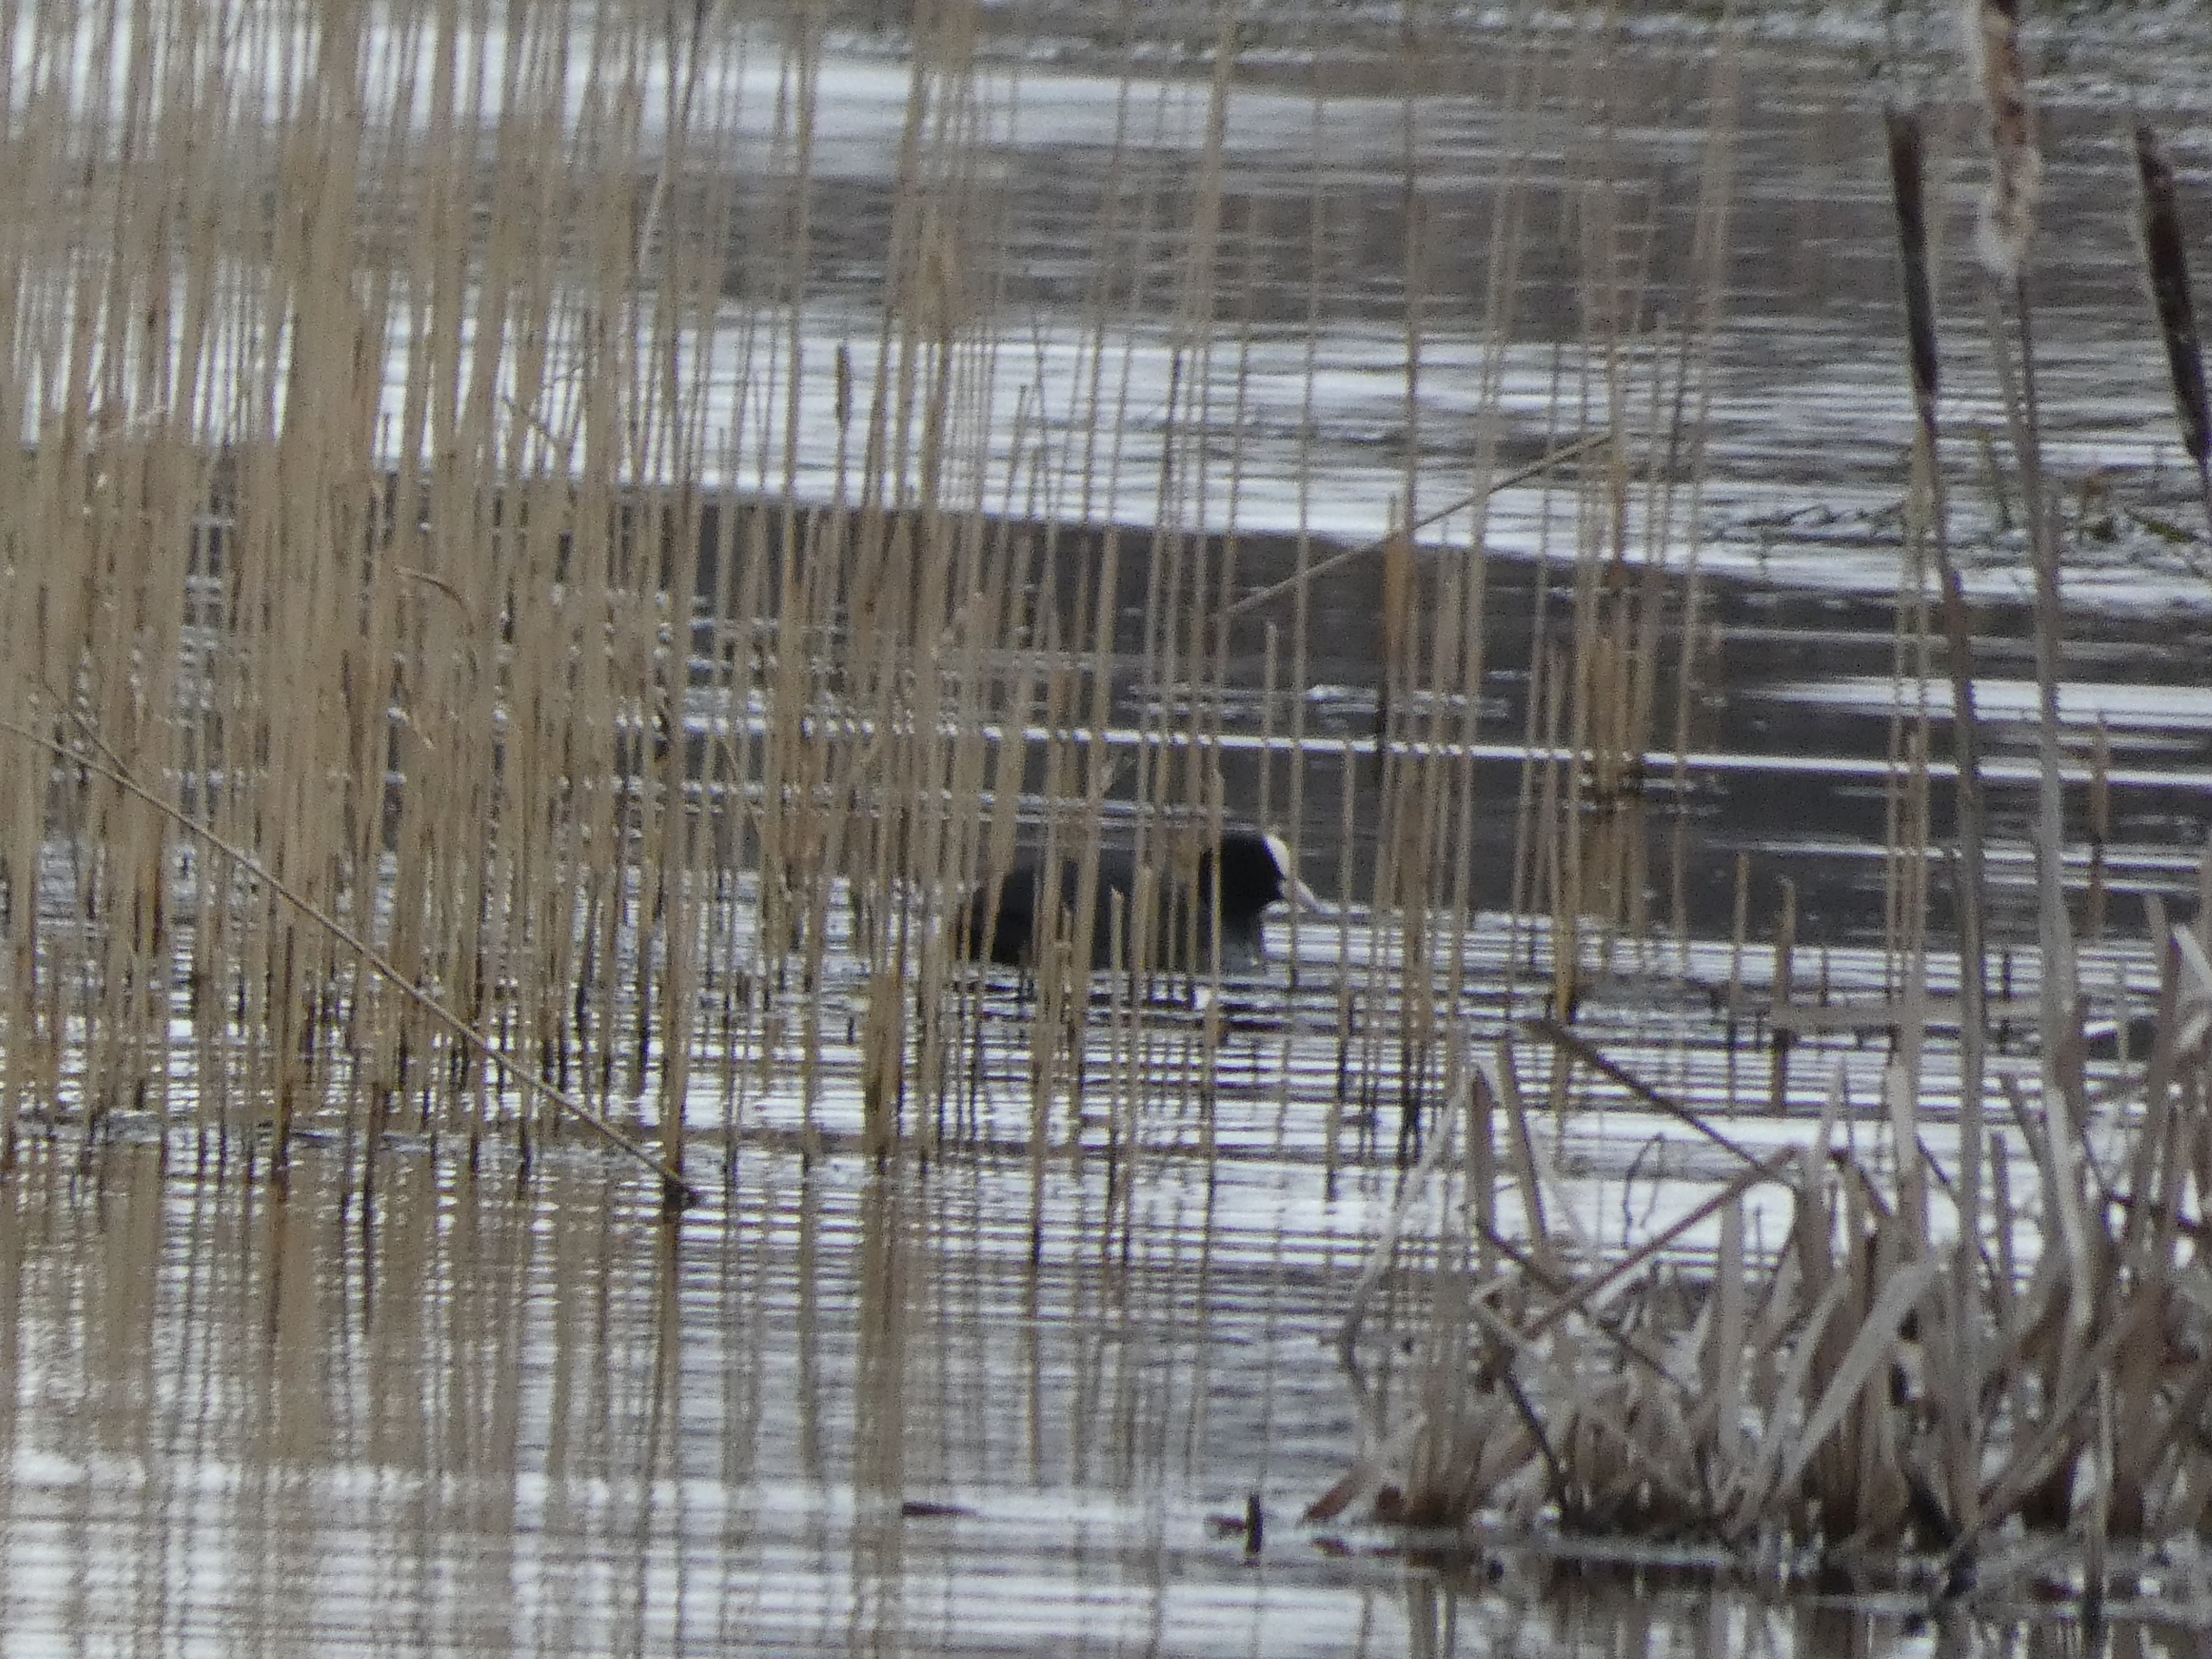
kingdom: Animalia
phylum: Chordata
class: Aves
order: Gruiformes
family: Rallidae
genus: Fulica
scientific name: Fulica atra
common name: Blishøne
